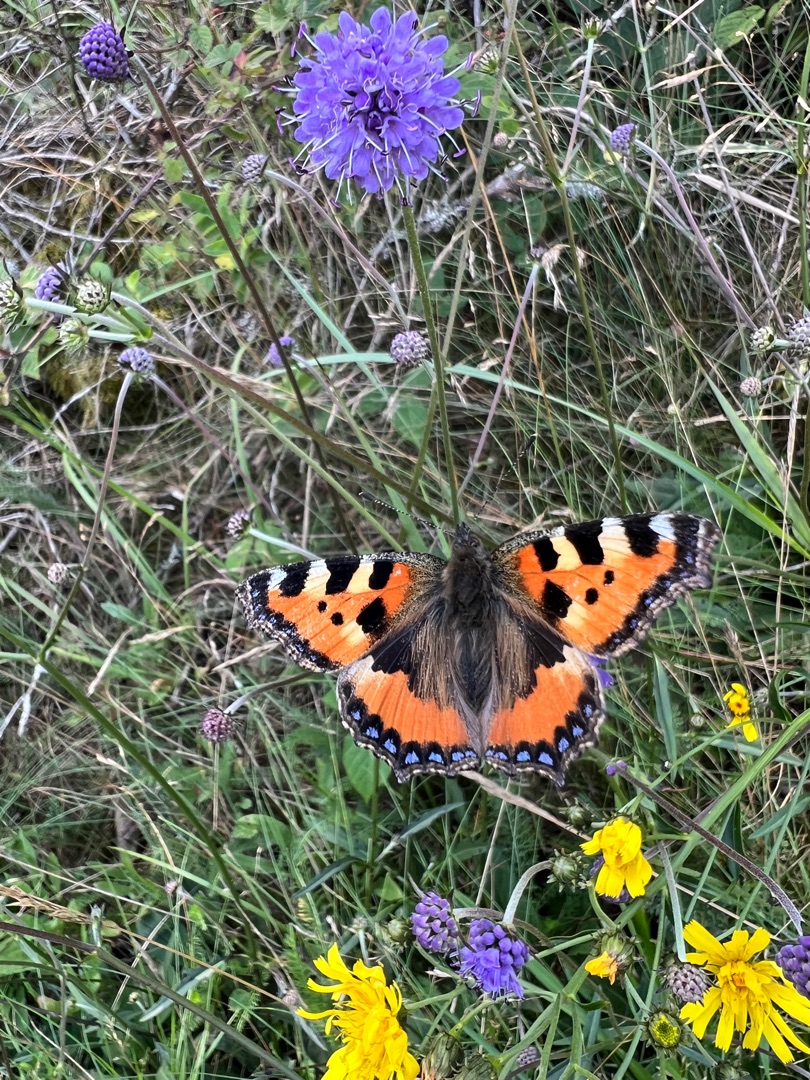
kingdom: Animalia
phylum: Arthropoda
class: Insecta
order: Lepidoptera
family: Nymphalidae
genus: Aglais
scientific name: Aglais urticae
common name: Nældens takvinge
